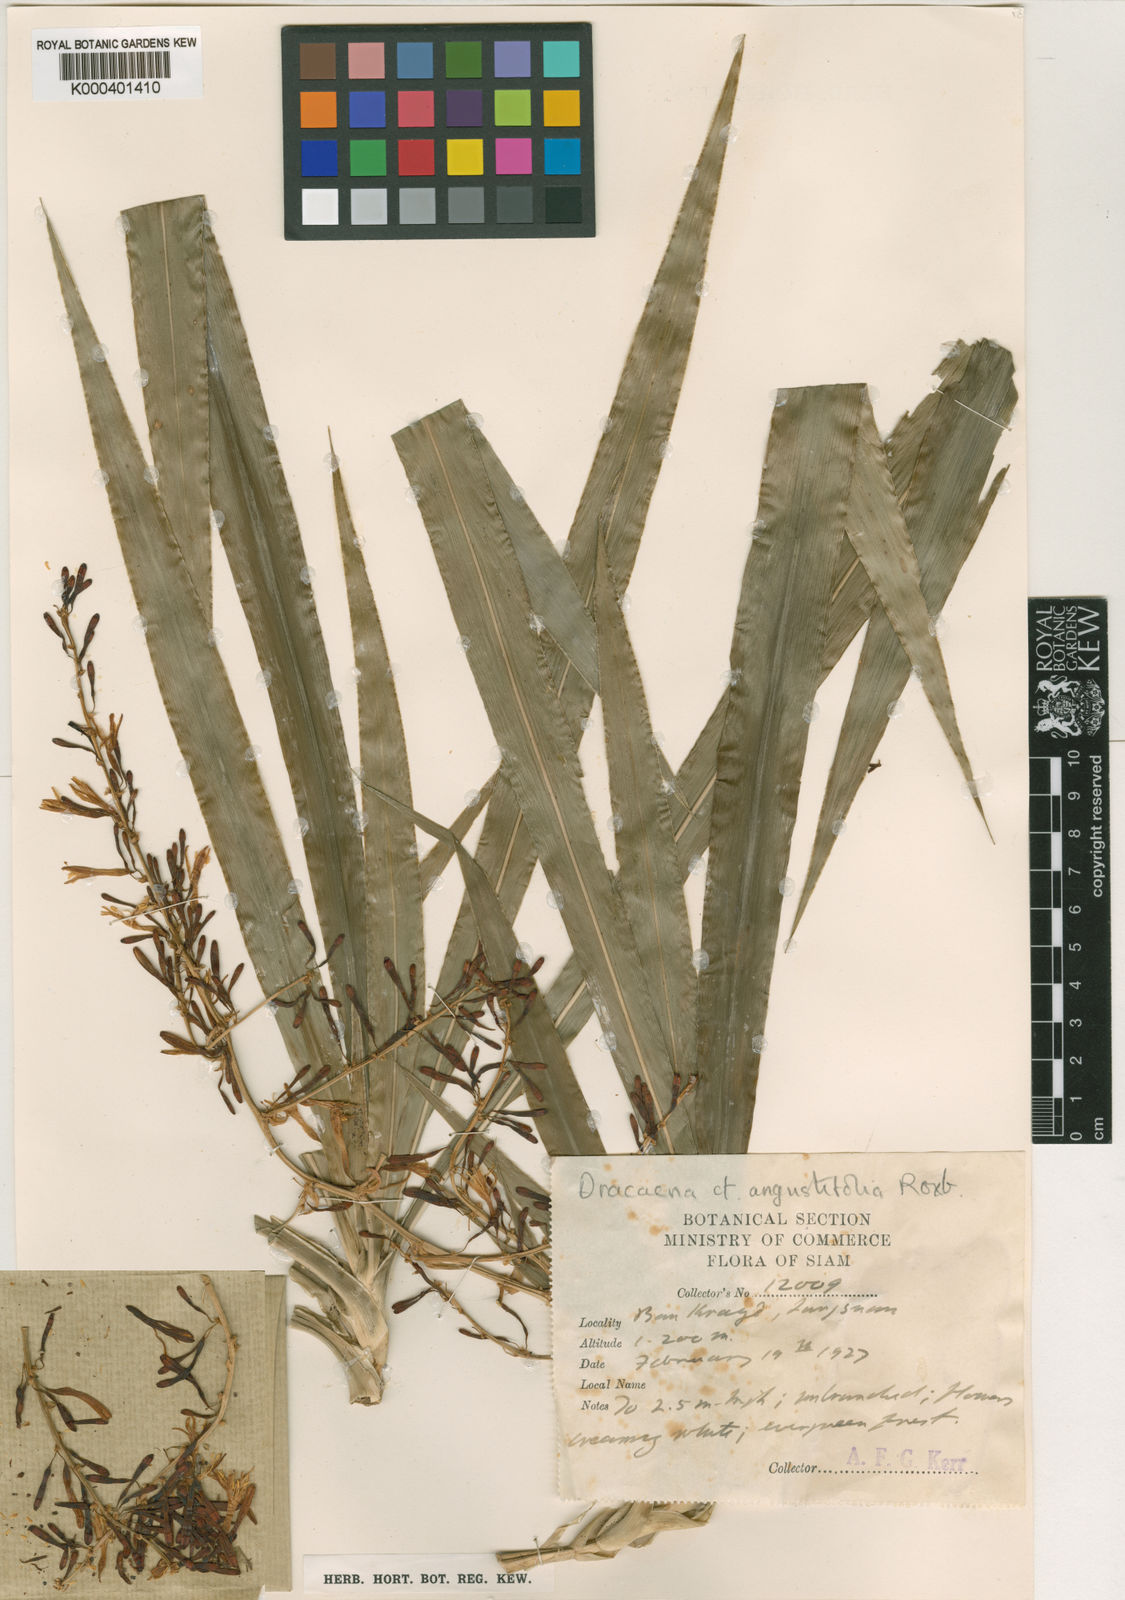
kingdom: Plantae
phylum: Tracheophyta
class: Liliopsida
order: Asparagales
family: Asparagaceae
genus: Dracaena
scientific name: Dracaena angustifolia
